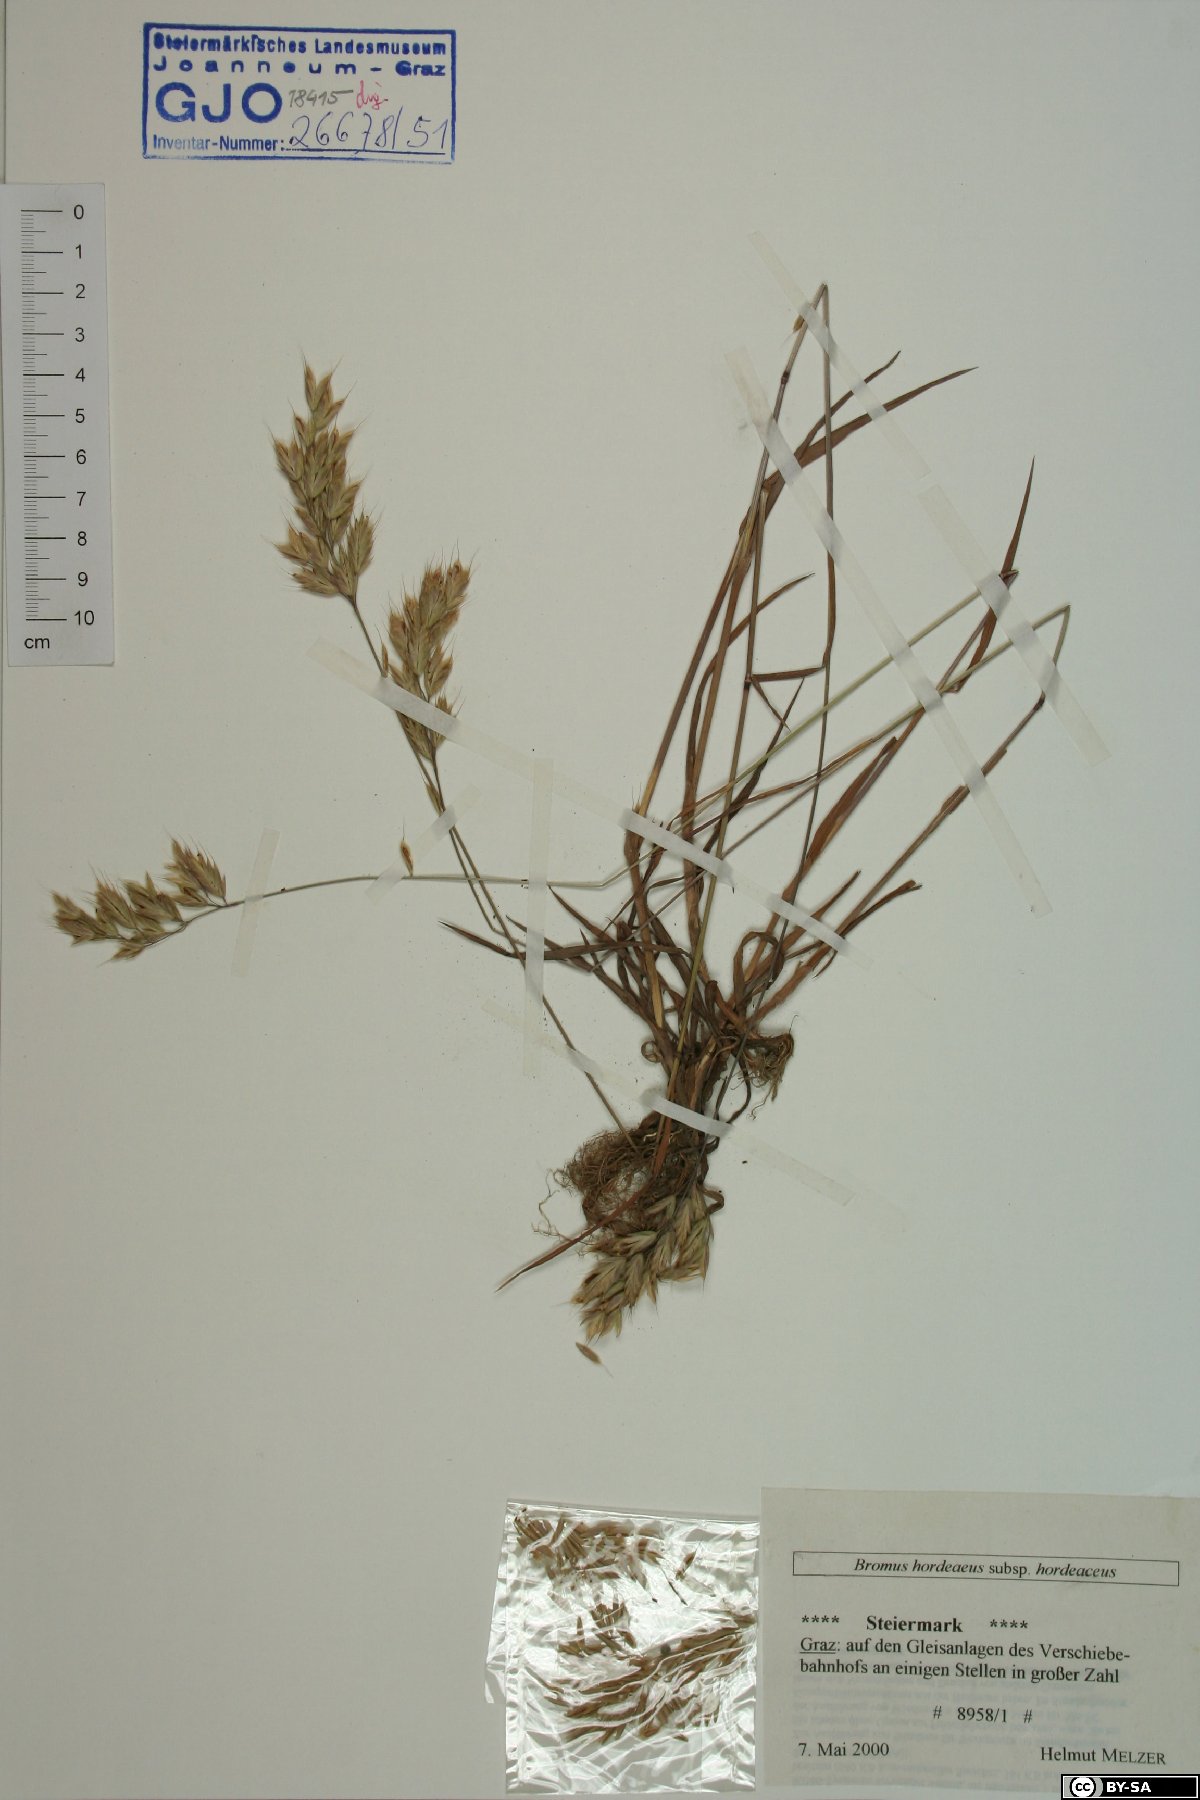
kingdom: Plantae
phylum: Tracheophyta
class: Liliopsida
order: Poales
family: Poaceae
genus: Bromus
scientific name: Bromus hordeaceus
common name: Soft brome
